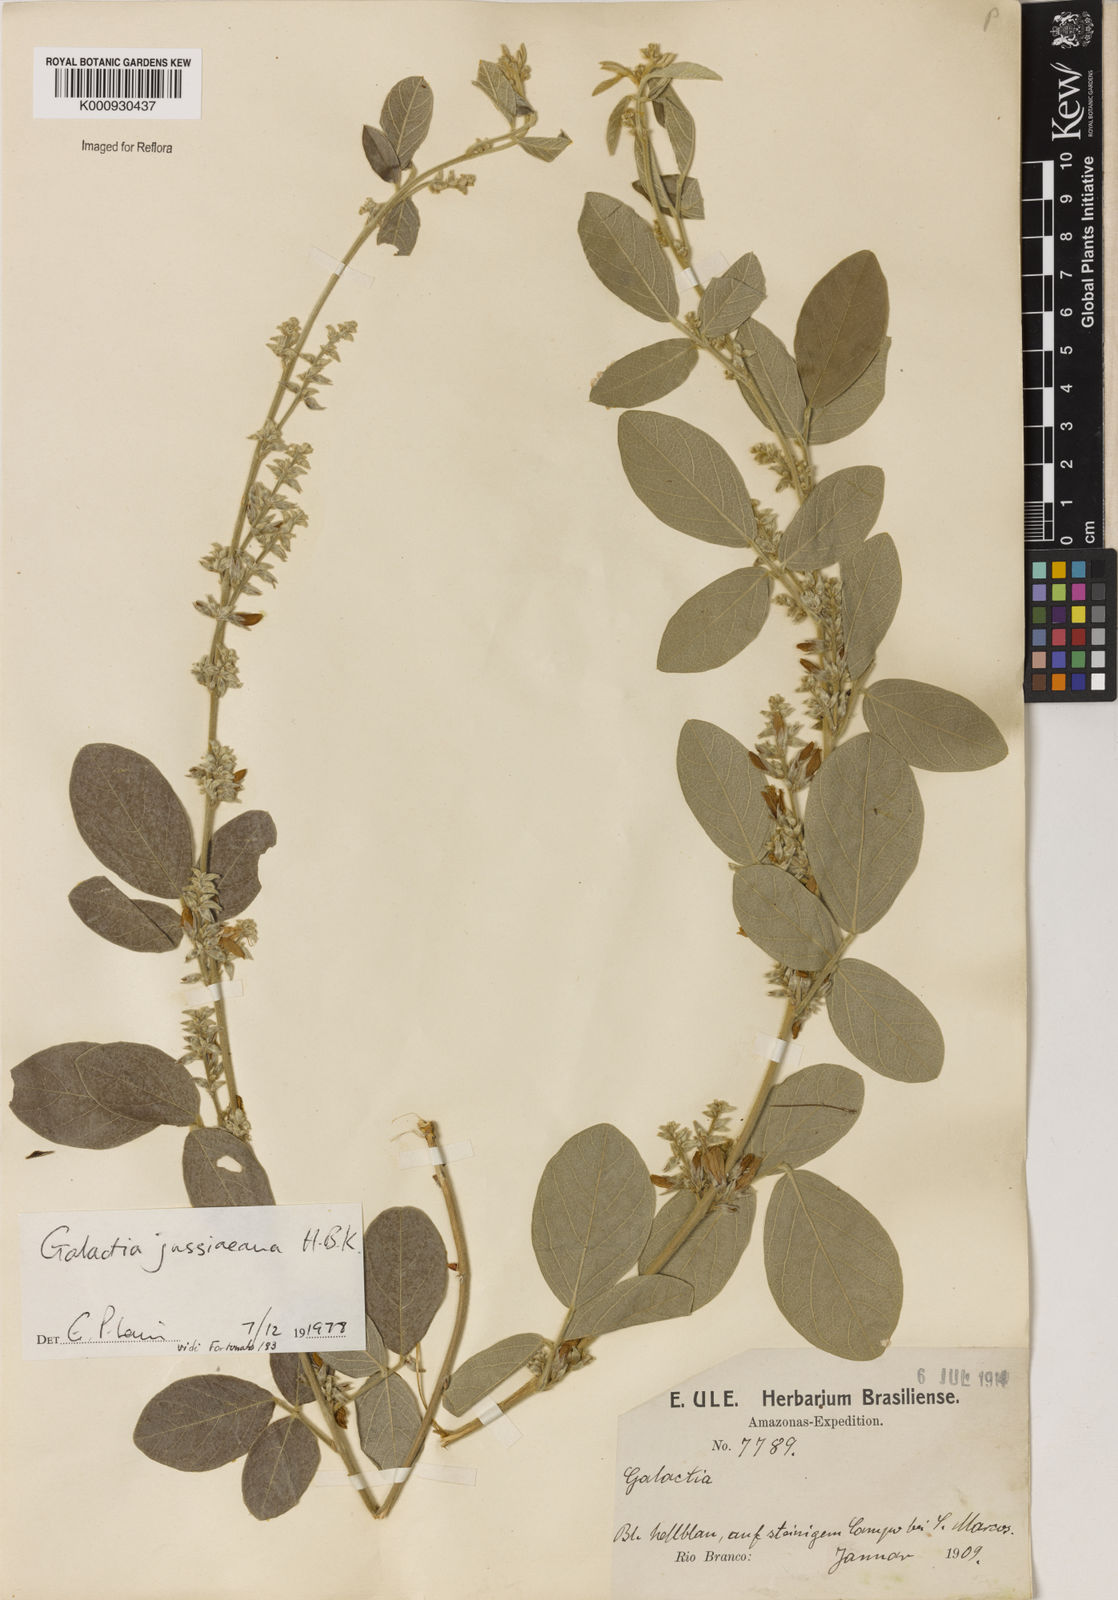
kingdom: Plantae
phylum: Tracheophyta
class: Magnoliopsida
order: Fabales
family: Fabaceae
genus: Galactia
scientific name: Galactia jussiaeana
